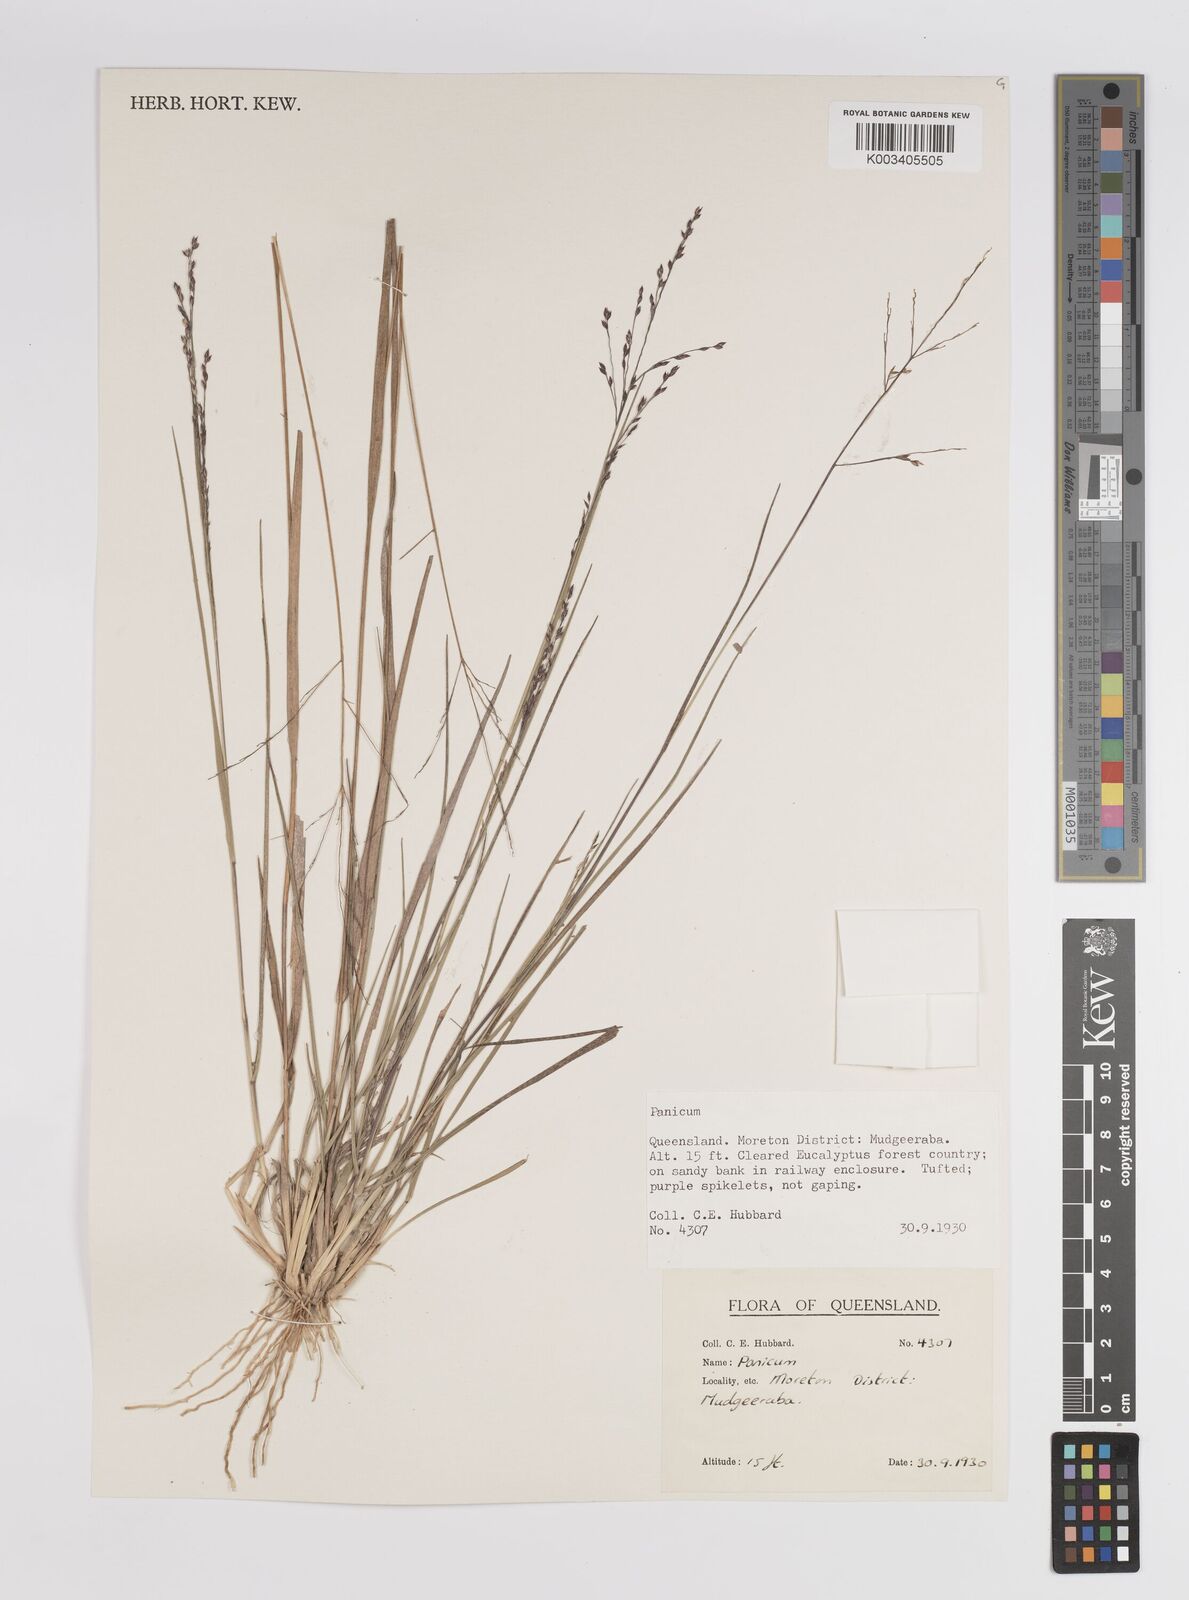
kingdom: Plantae
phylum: Tracheophyta
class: Liliopsida
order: Poales
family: Poaceae
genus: Panicum
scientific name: Panicum
